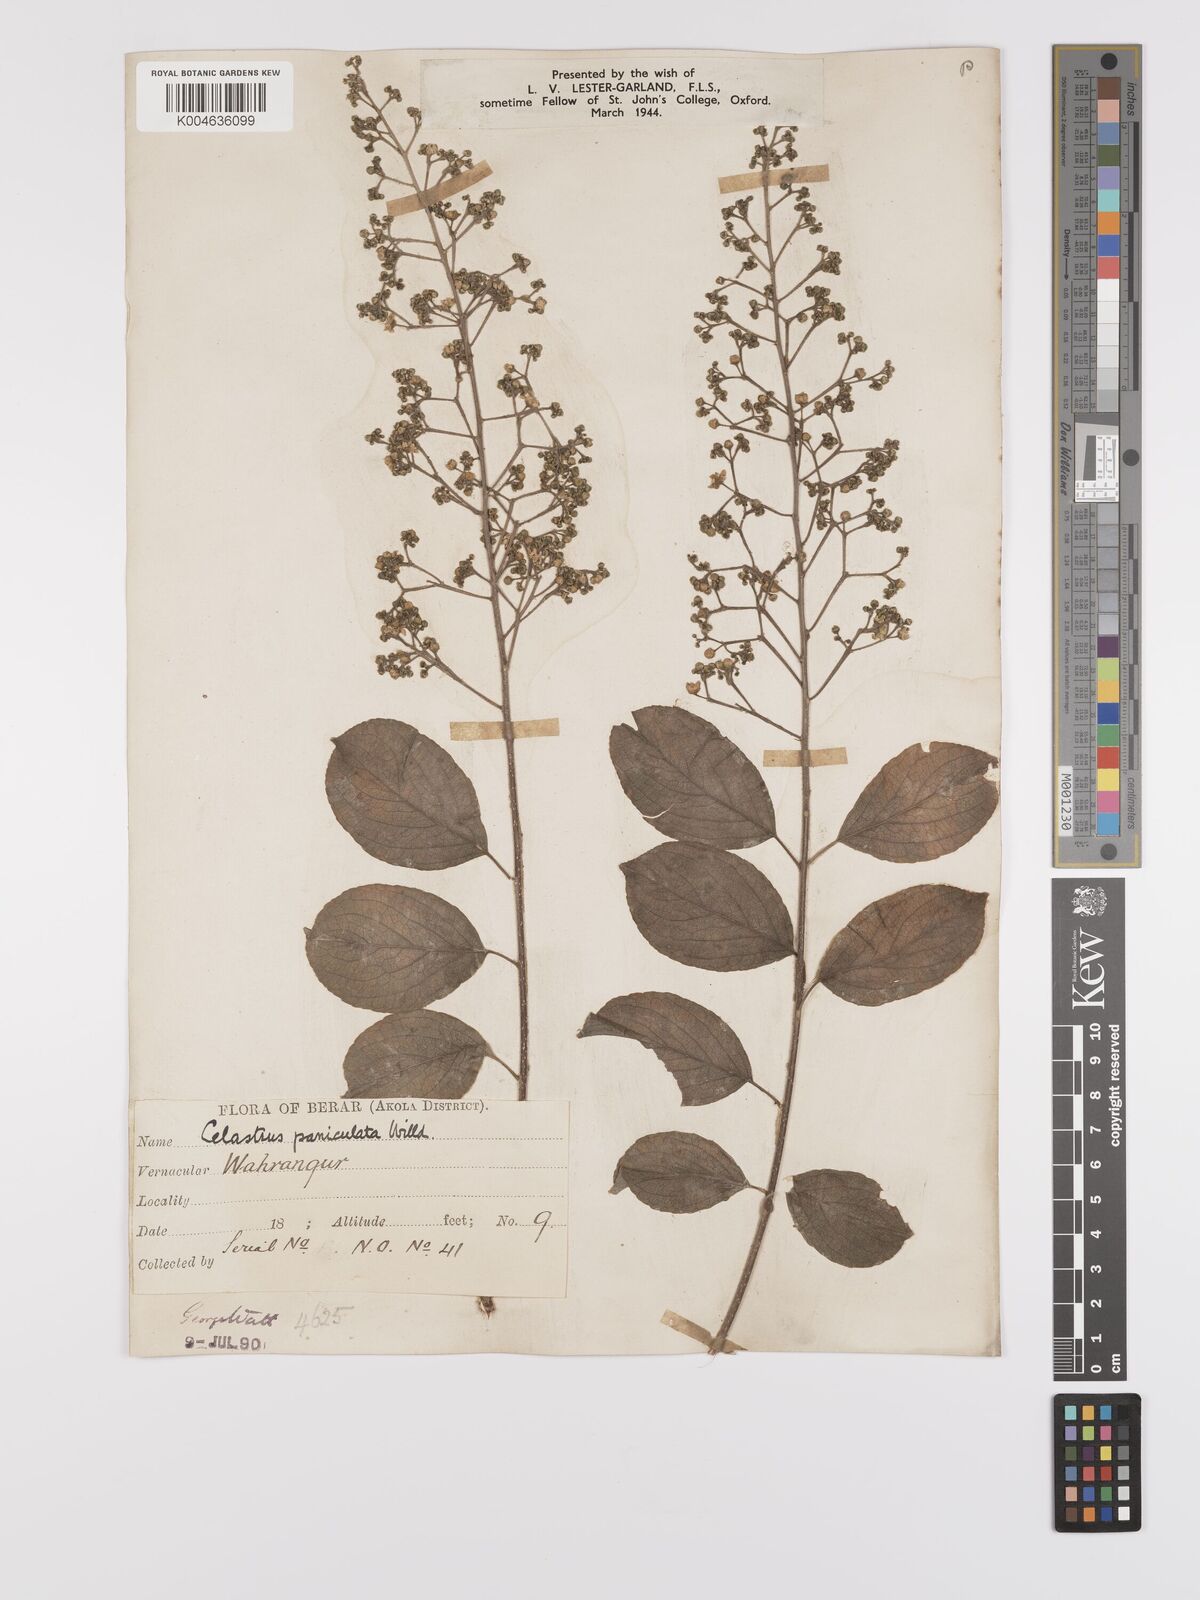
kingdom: Plantae
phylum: Tracheophyta
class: Magnoliopsida
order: Celastrales
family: Celastraceae
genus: Celastrus
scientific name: Celastrus paniculatus
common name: Oriental bittersweet; staff vine
